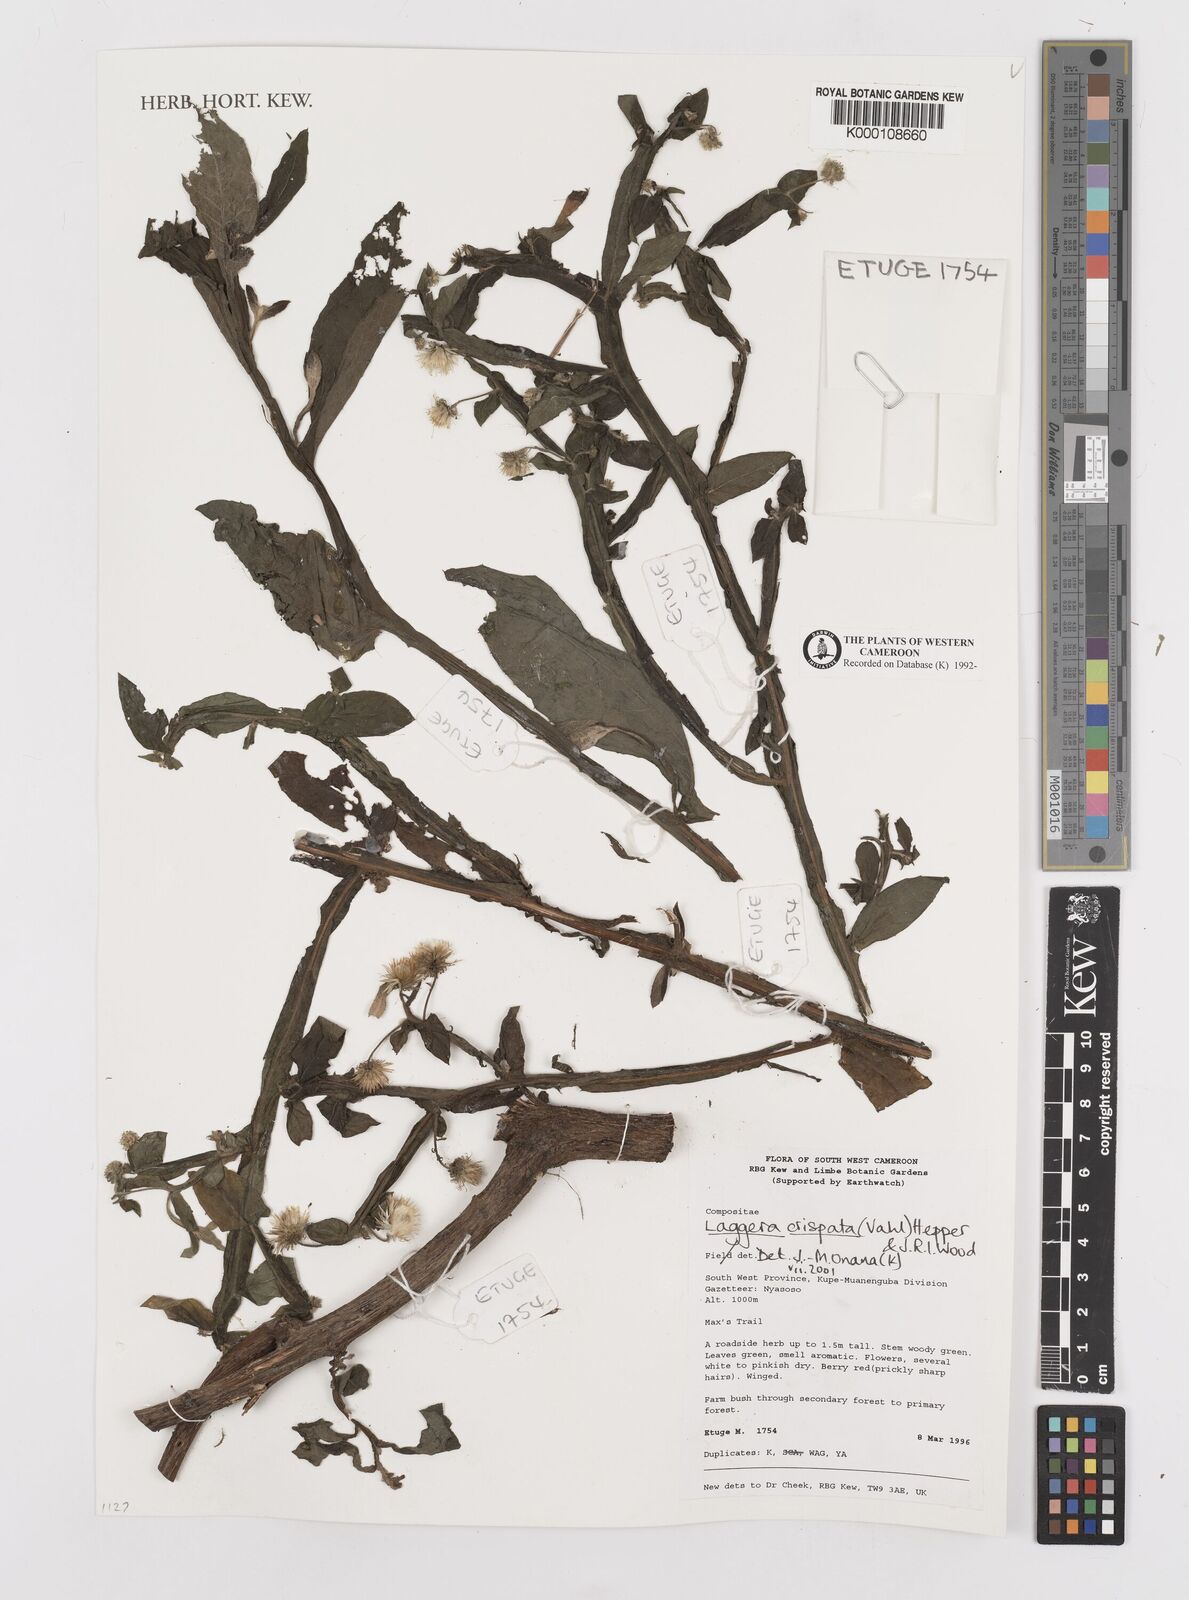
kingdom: Plantae
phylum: Tracheophyta
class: Magnoliopsida
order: Asterales
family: Asteraceae
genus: Laggera
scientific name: Laggera crispata
